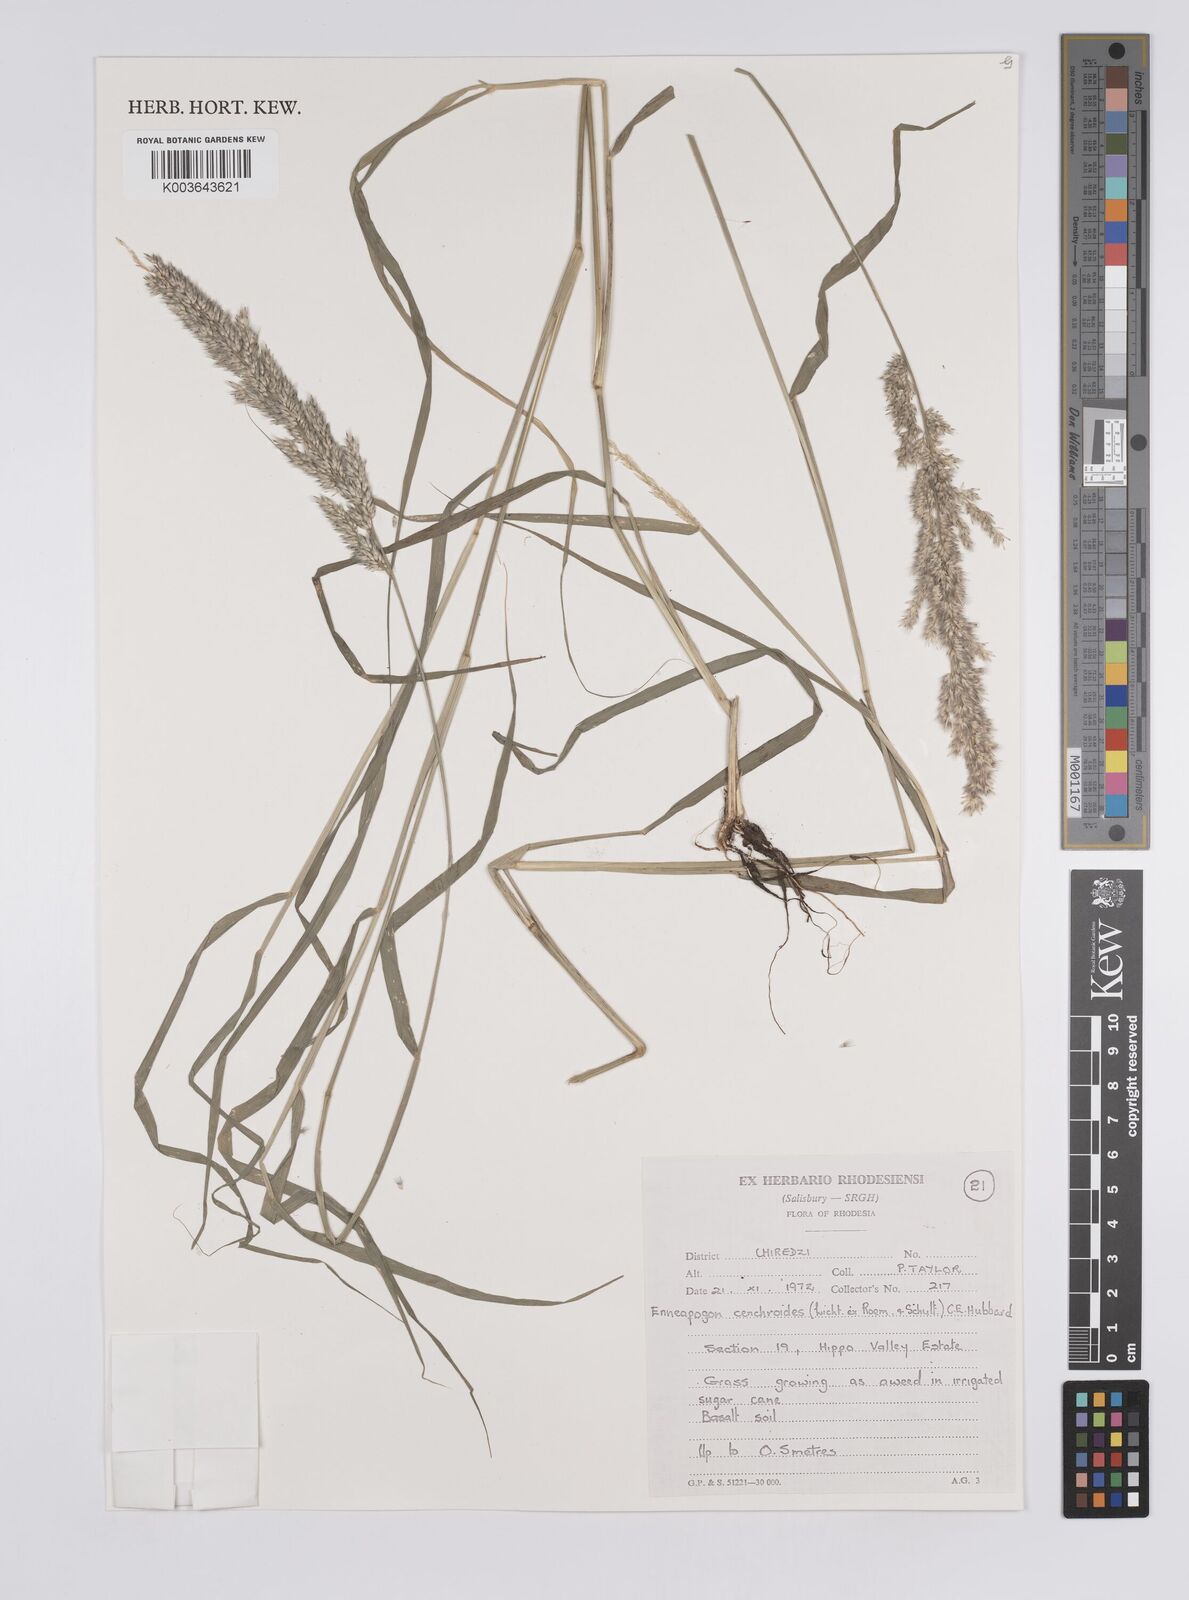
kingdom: Plantae
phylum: Tracheophyta
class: Liliopsida
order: Poales
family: Poaceae
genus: Enneapogon
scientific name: Enneapogon cenchroides
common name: Soft feather pappusgrass
